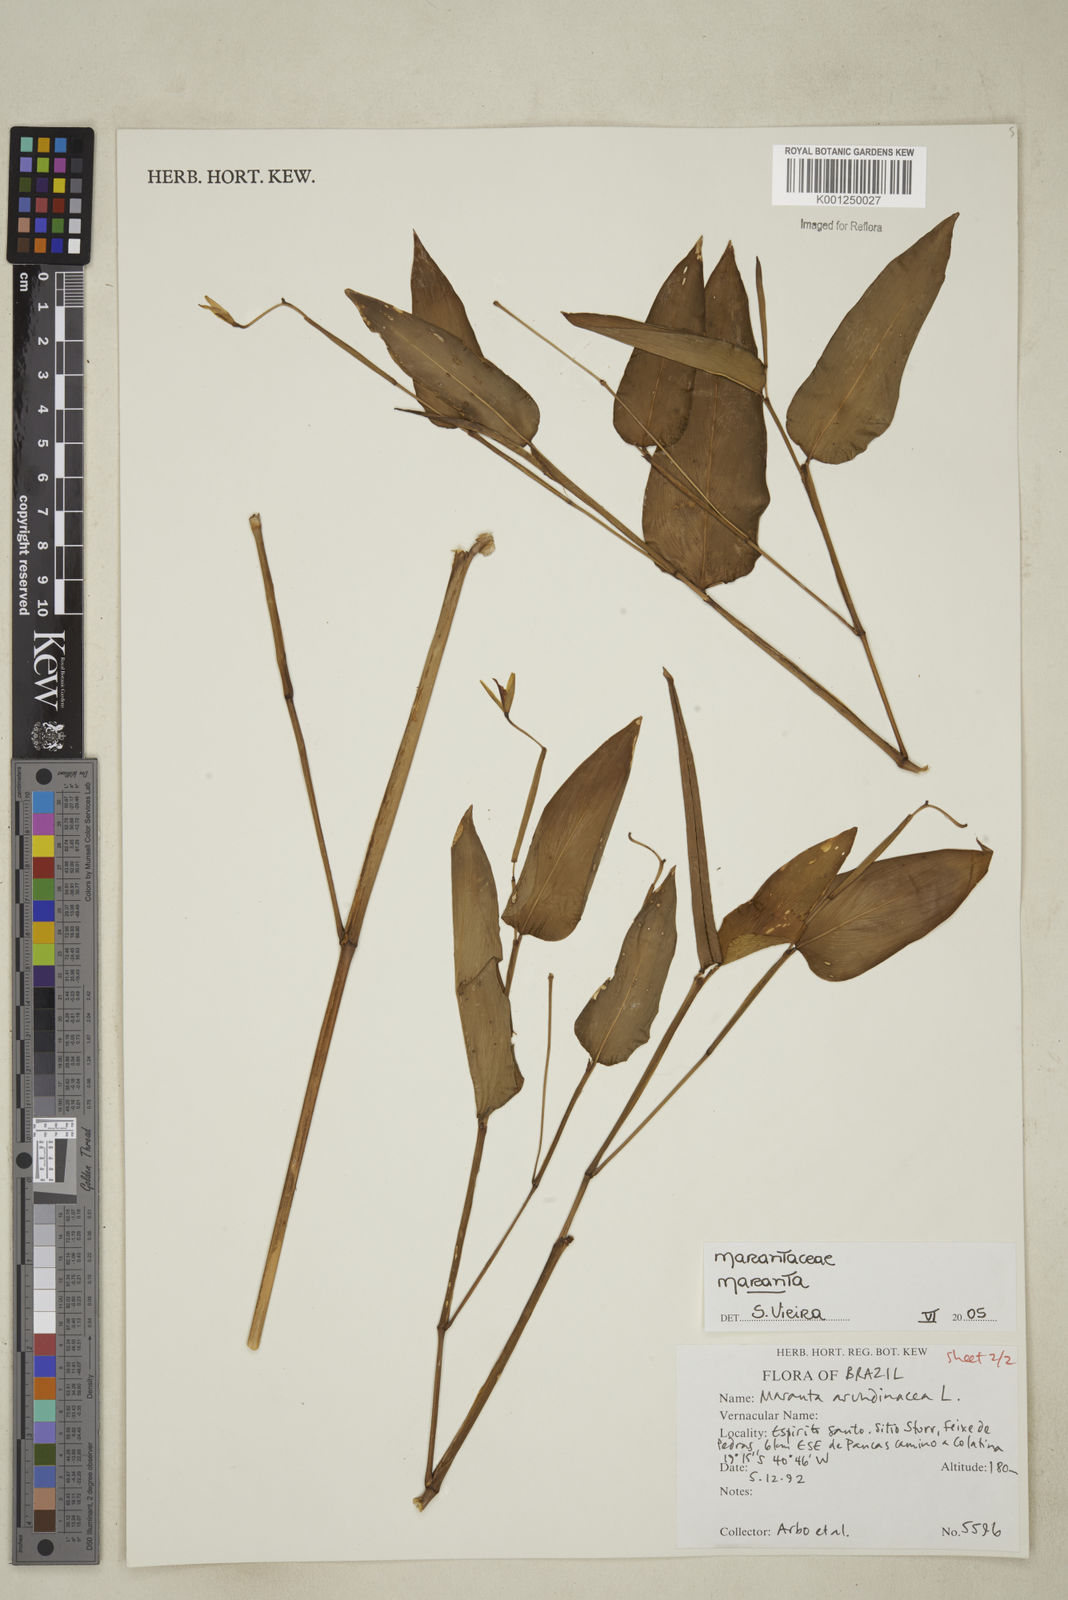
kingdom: Plantae
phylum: Tracheophyta
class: Liliopsida
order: Zingiberales
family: Marantaceae
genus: Maranta
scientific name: Maranta
